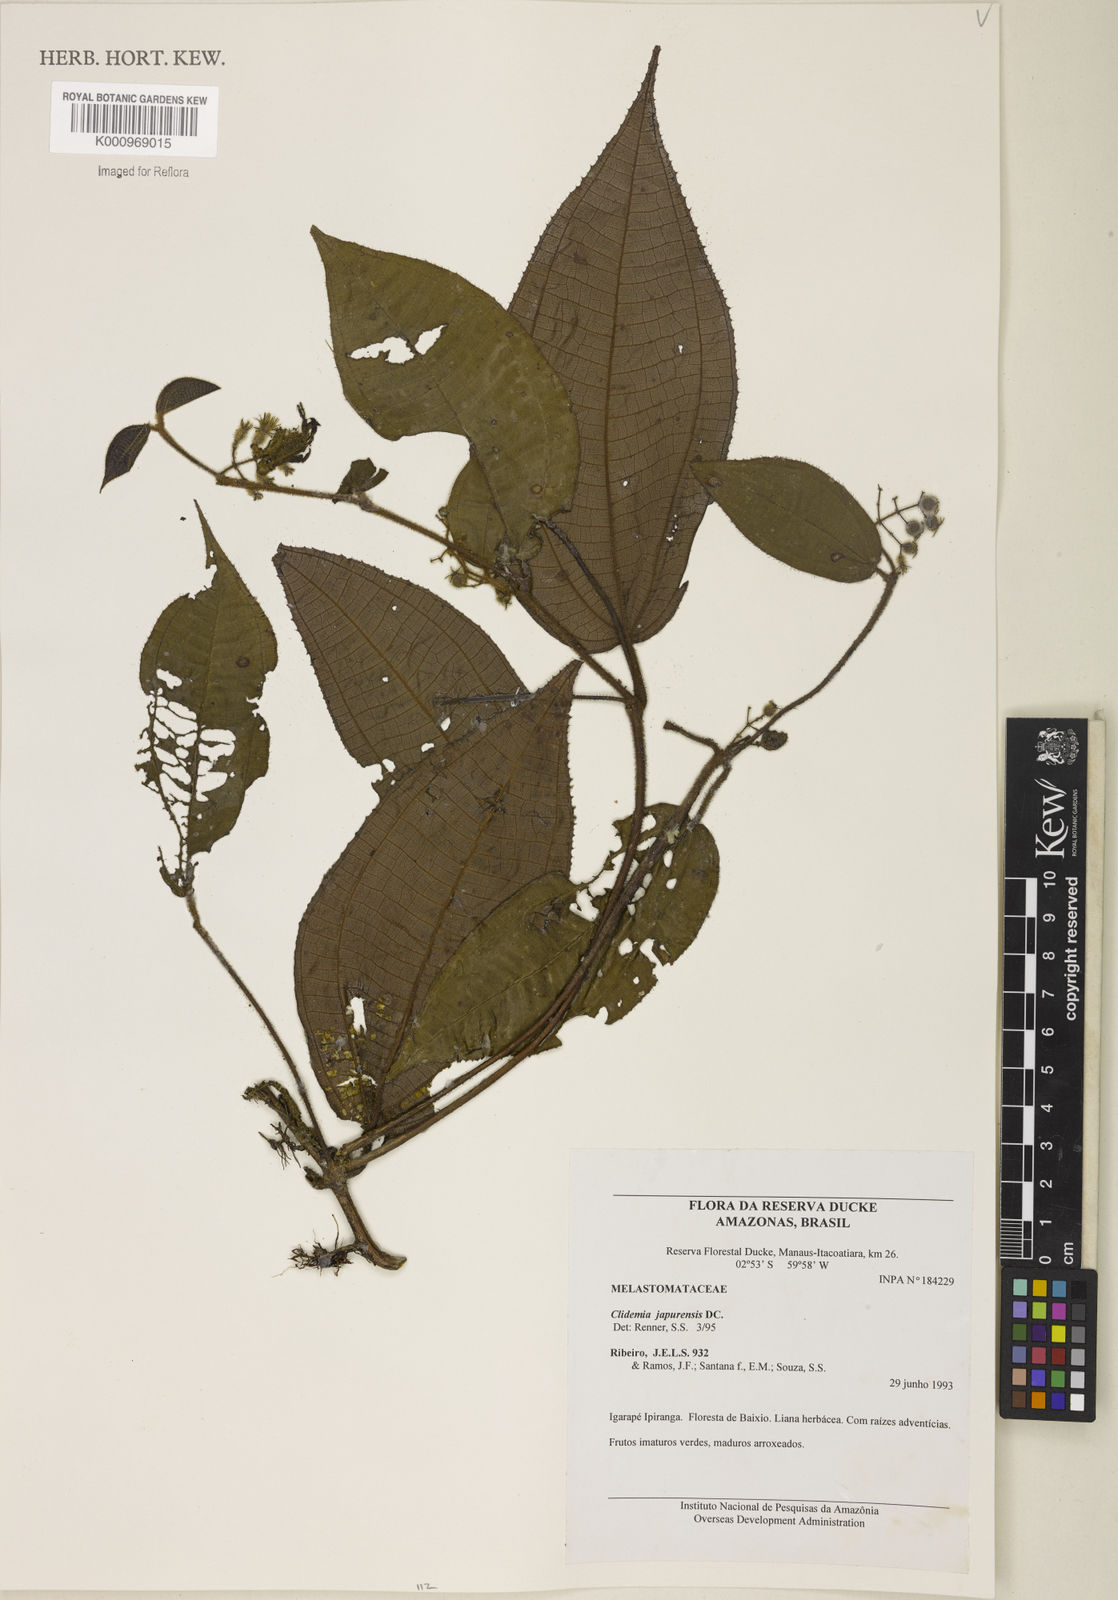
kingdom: Plantae
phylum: Tracheophyta
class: Magnoliopsida
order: Myrtales
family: Melastomataceae
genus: Miconia
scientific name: Miconia heteroclita
